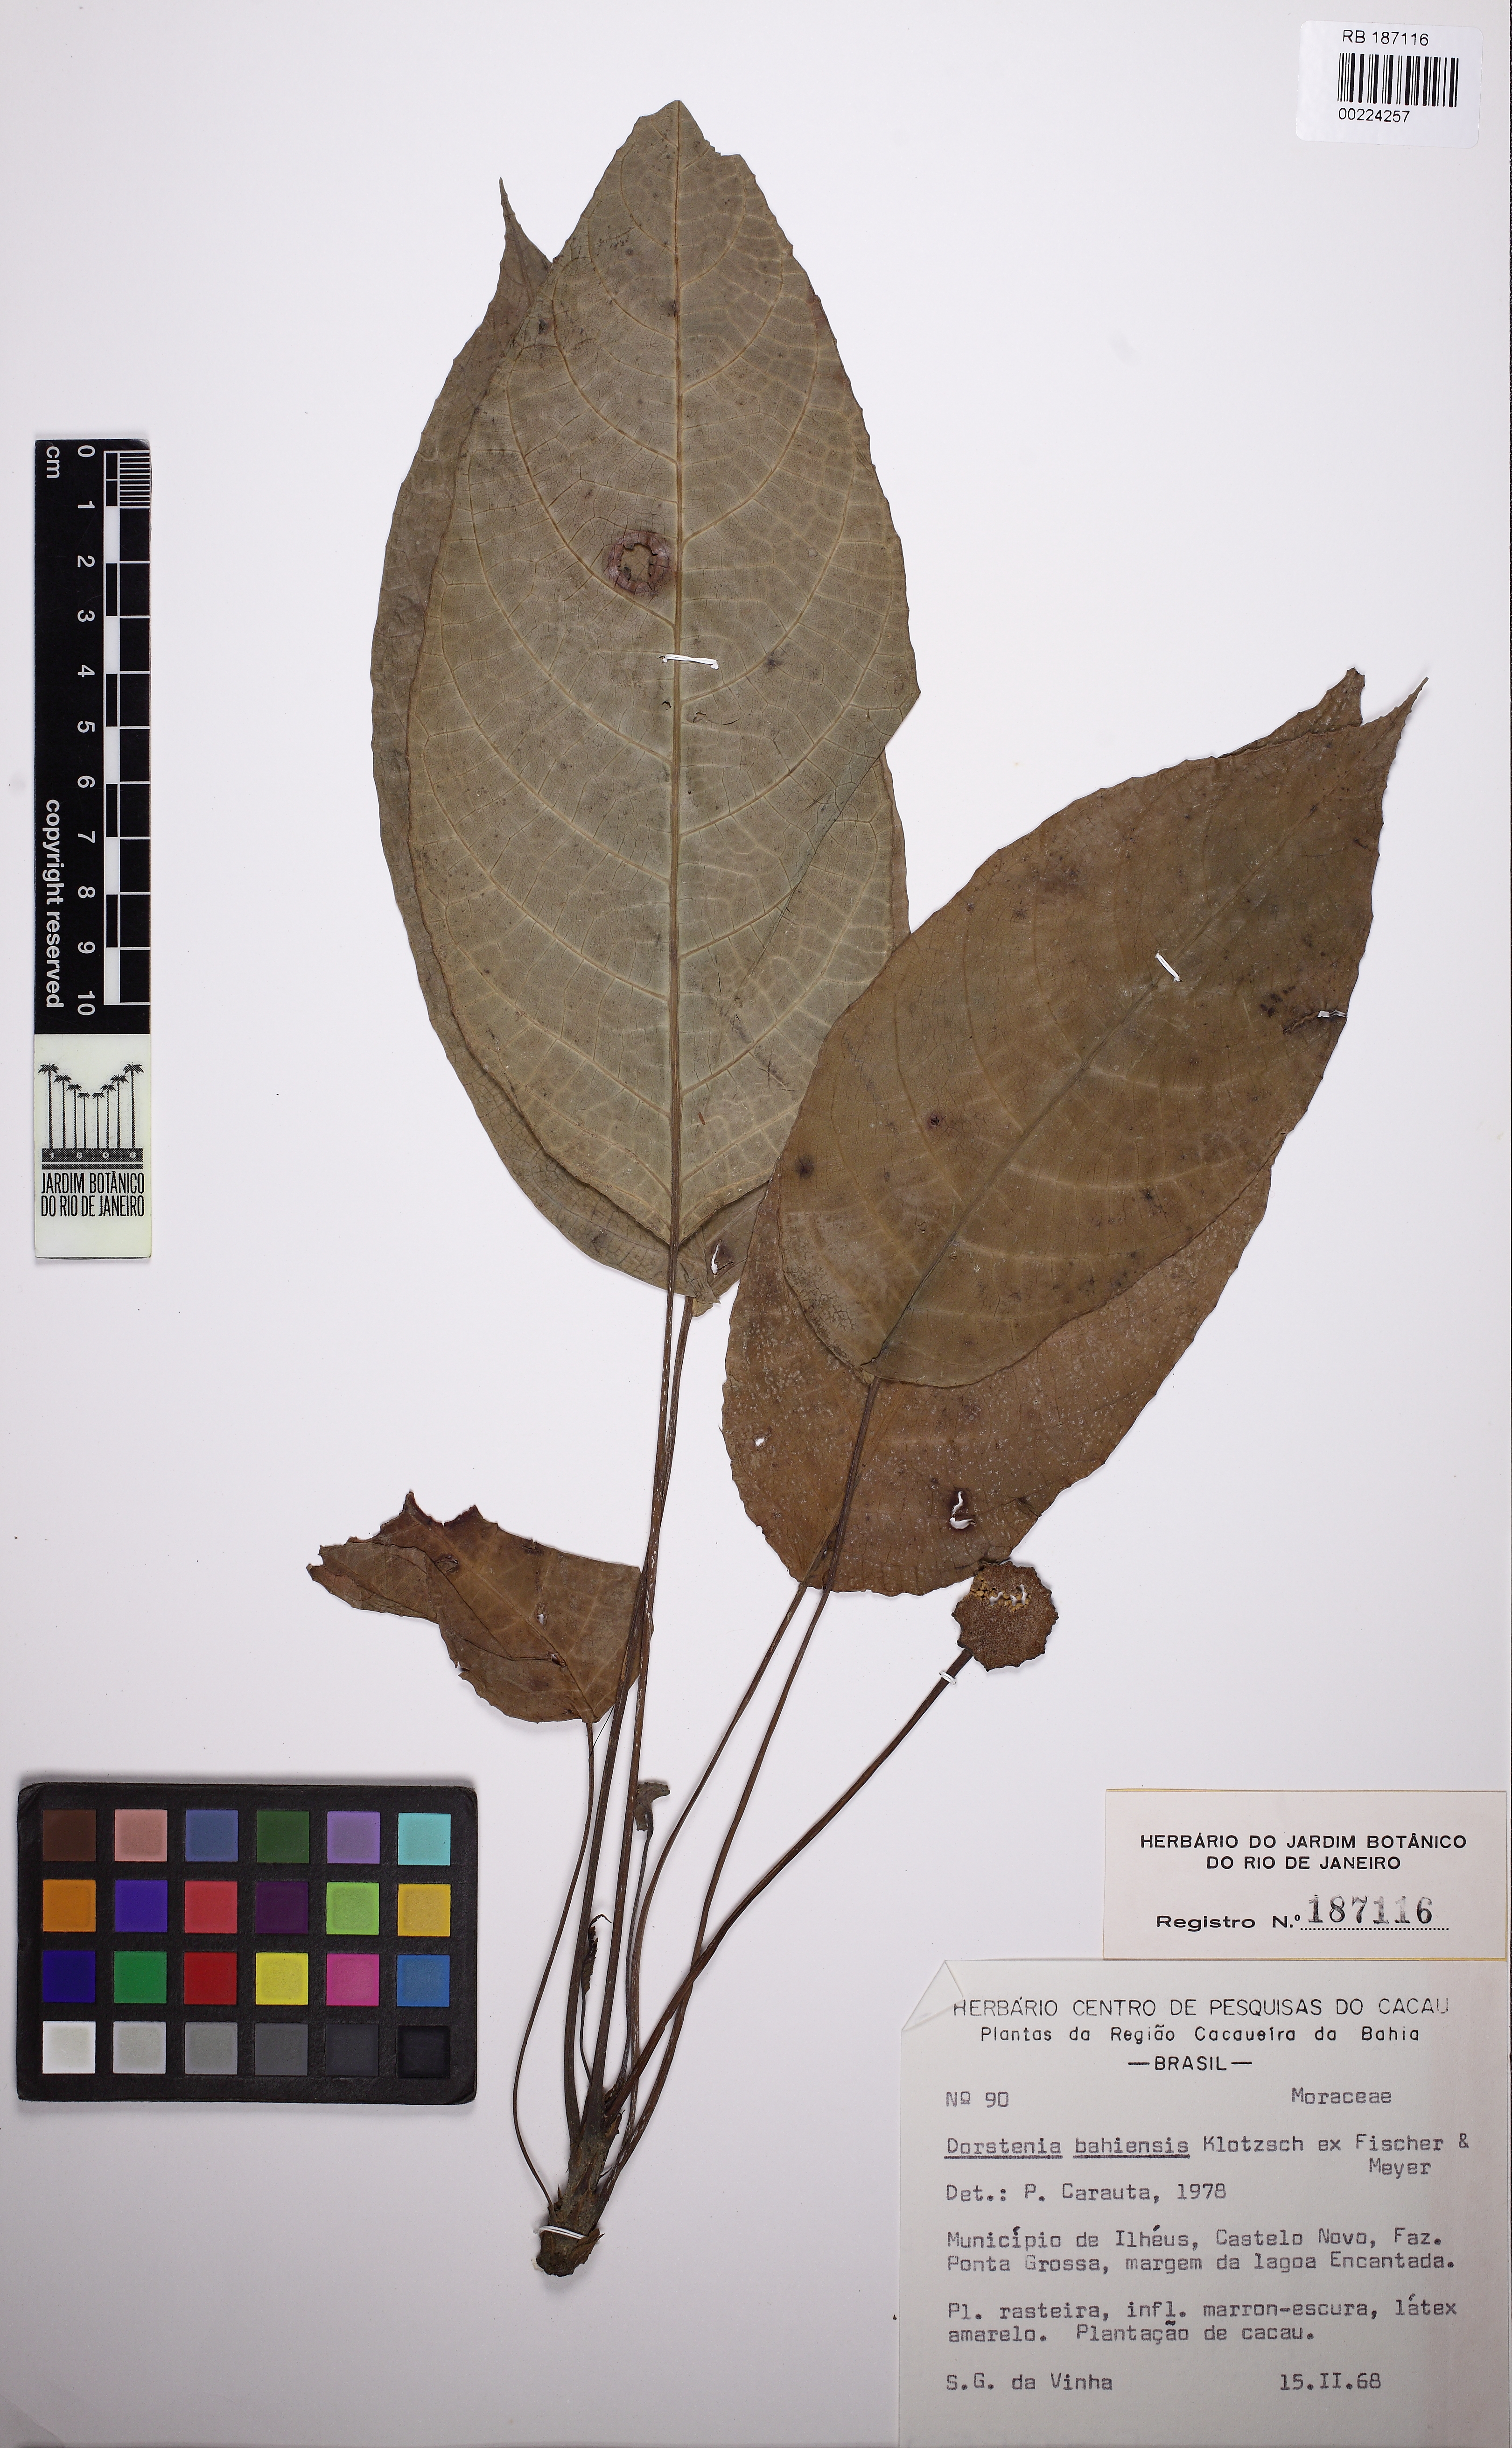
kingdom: Plantae
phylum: Tracheophyta
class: Magnoliopsida
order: Rosales
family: Moraceae
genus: Dorstenia
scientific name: Dorstenia bahiensis
